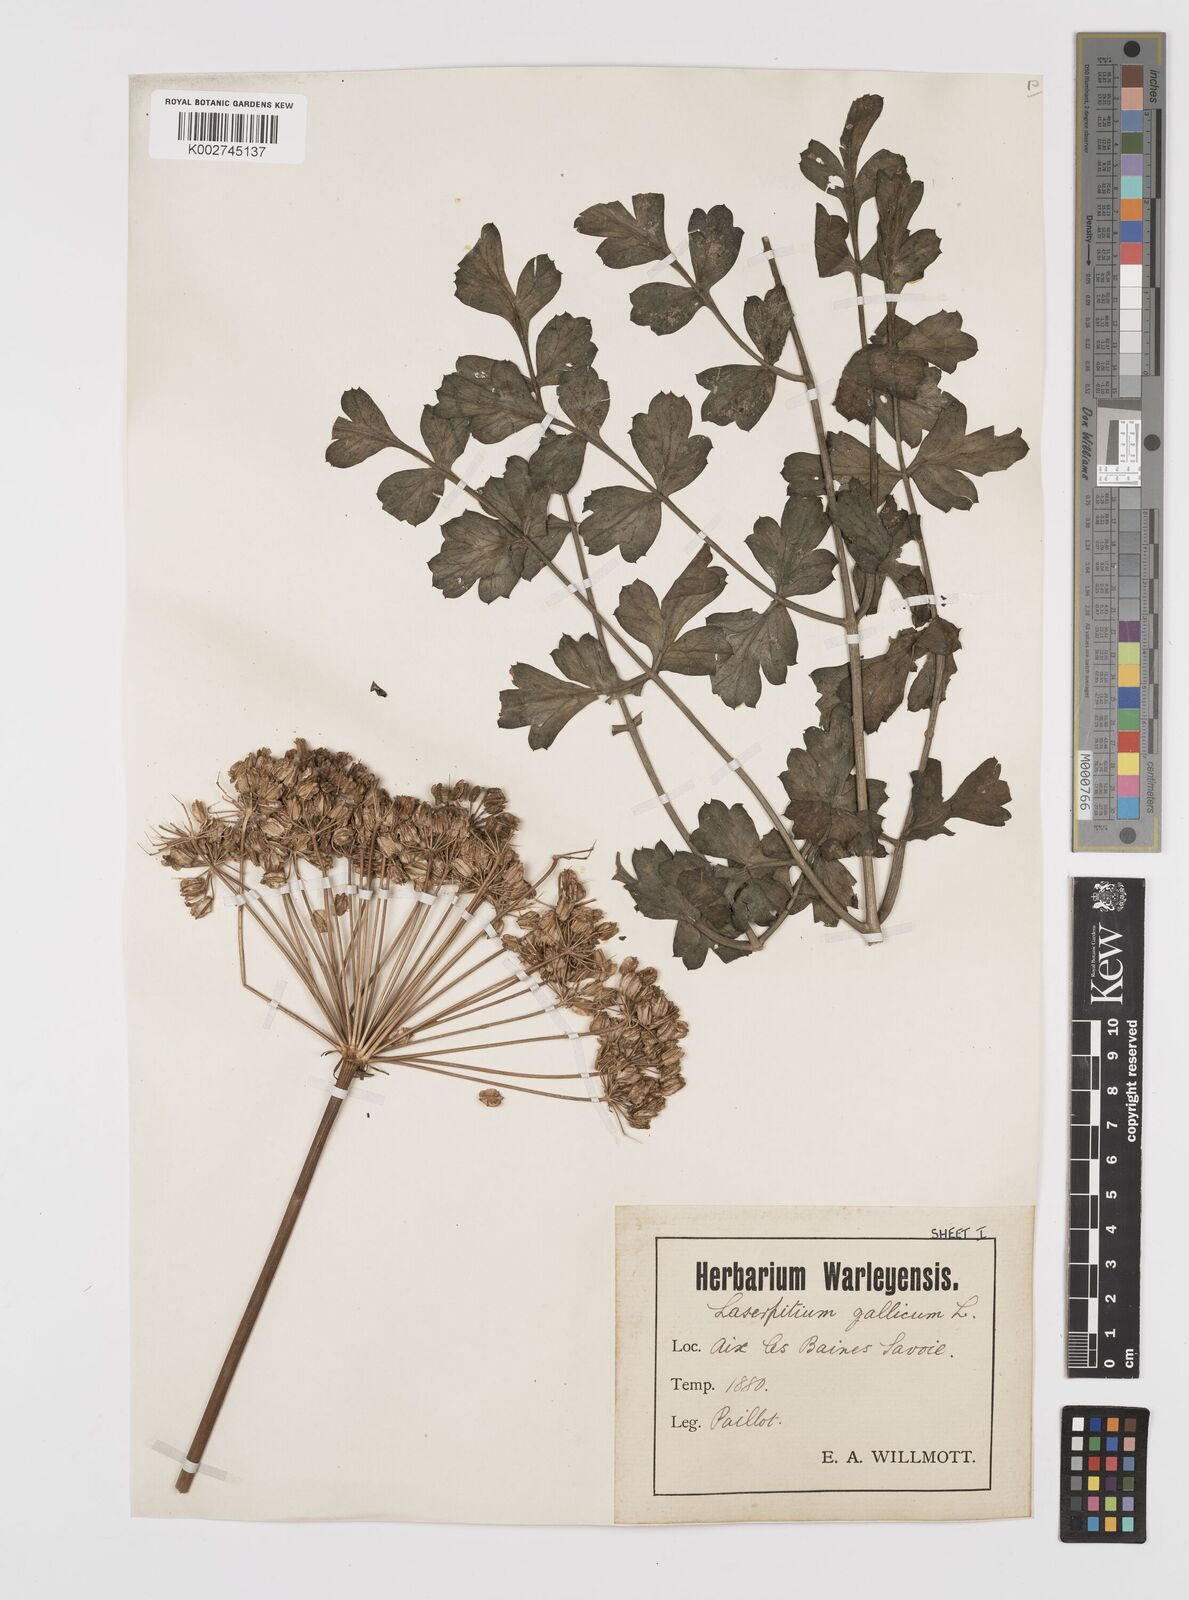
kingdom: Plantae
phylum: Tracheophyta
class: Magnoliopsida
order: Apiales
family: Apiaceae
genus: Laserpitium
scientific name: Laserpitium gallicum
